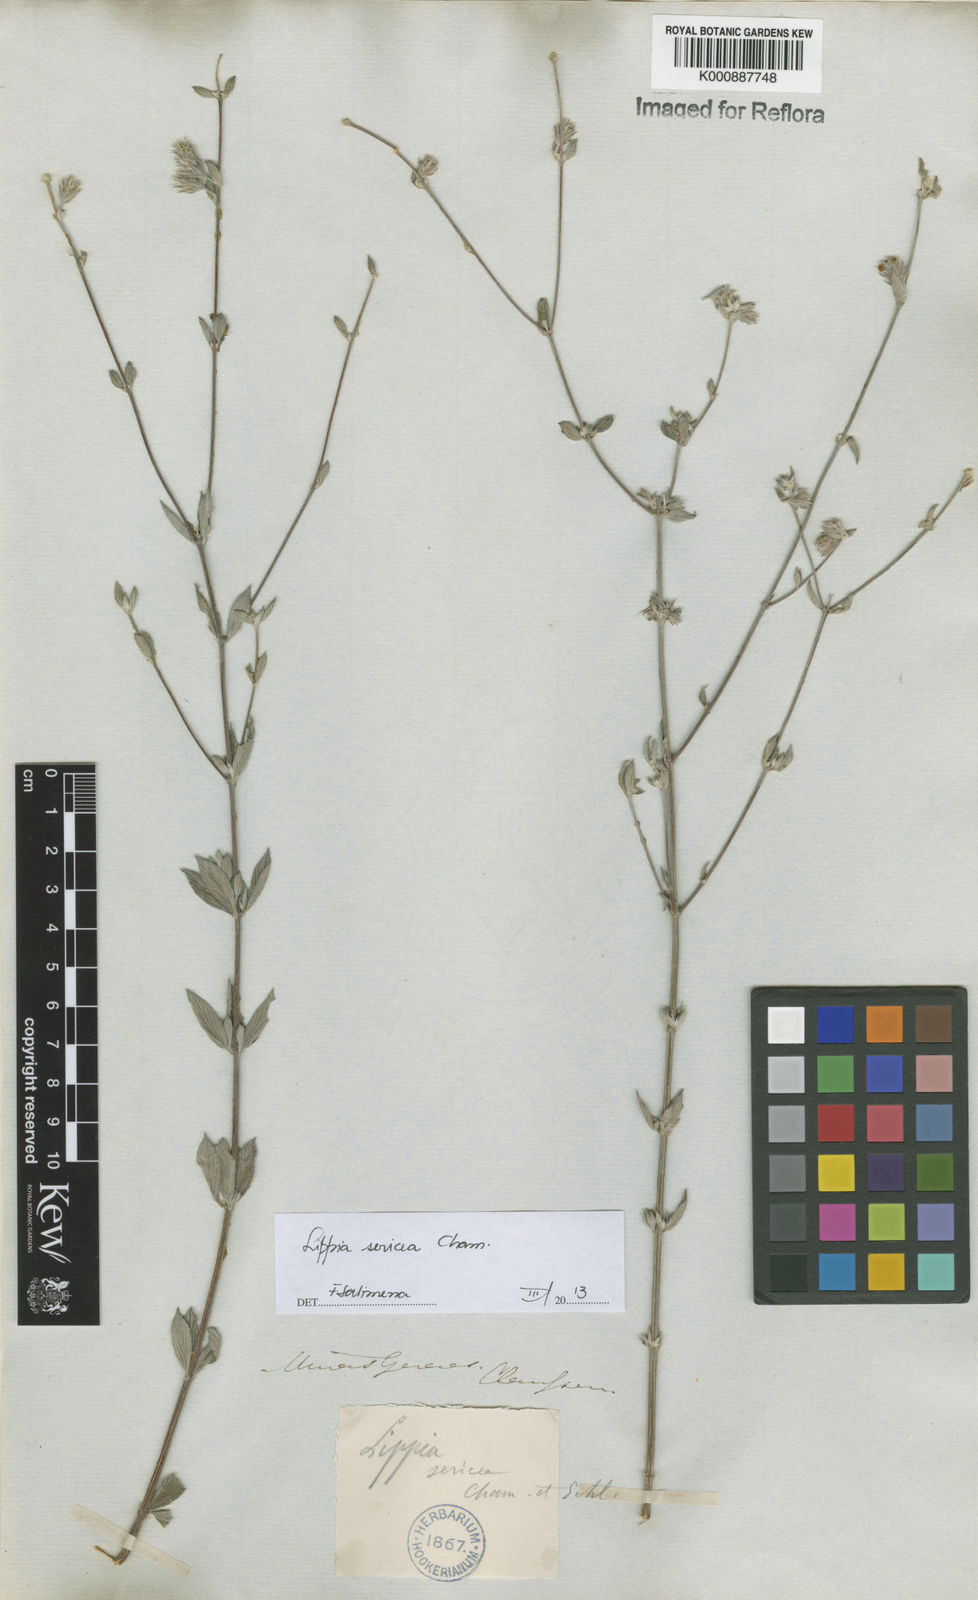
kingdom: Plantae
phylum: Tracheophyta
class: Magnoliopsida
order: Lamiales
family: Verbenaceae
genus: Lippia
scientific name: Lippia sericea
